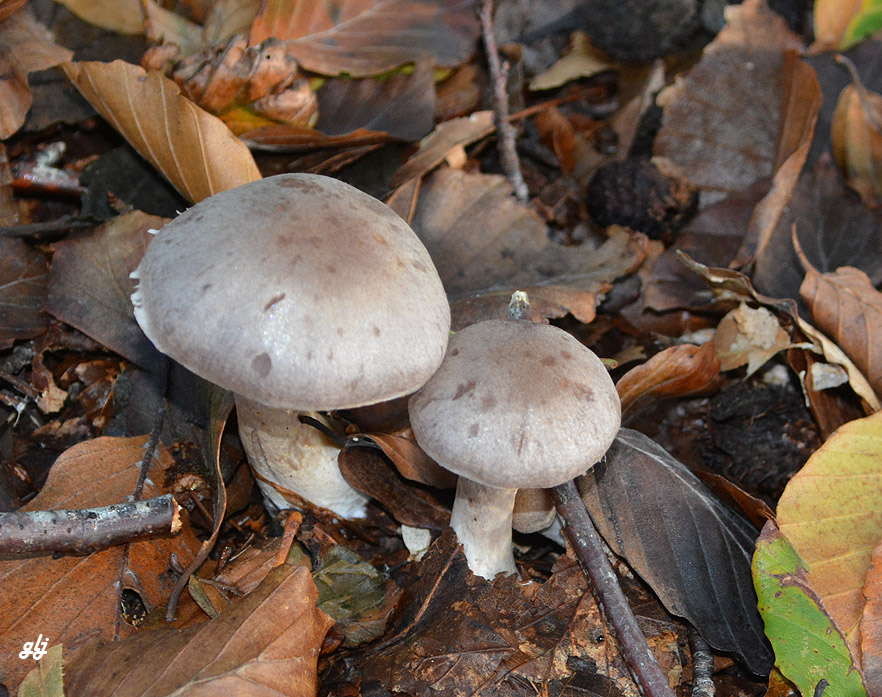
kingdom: Fungi
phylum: Basidiomycota
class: Agaricomycetes
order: Agaricales
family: Cortinariaceae
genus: Cortinarius
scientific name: Cortinarius
